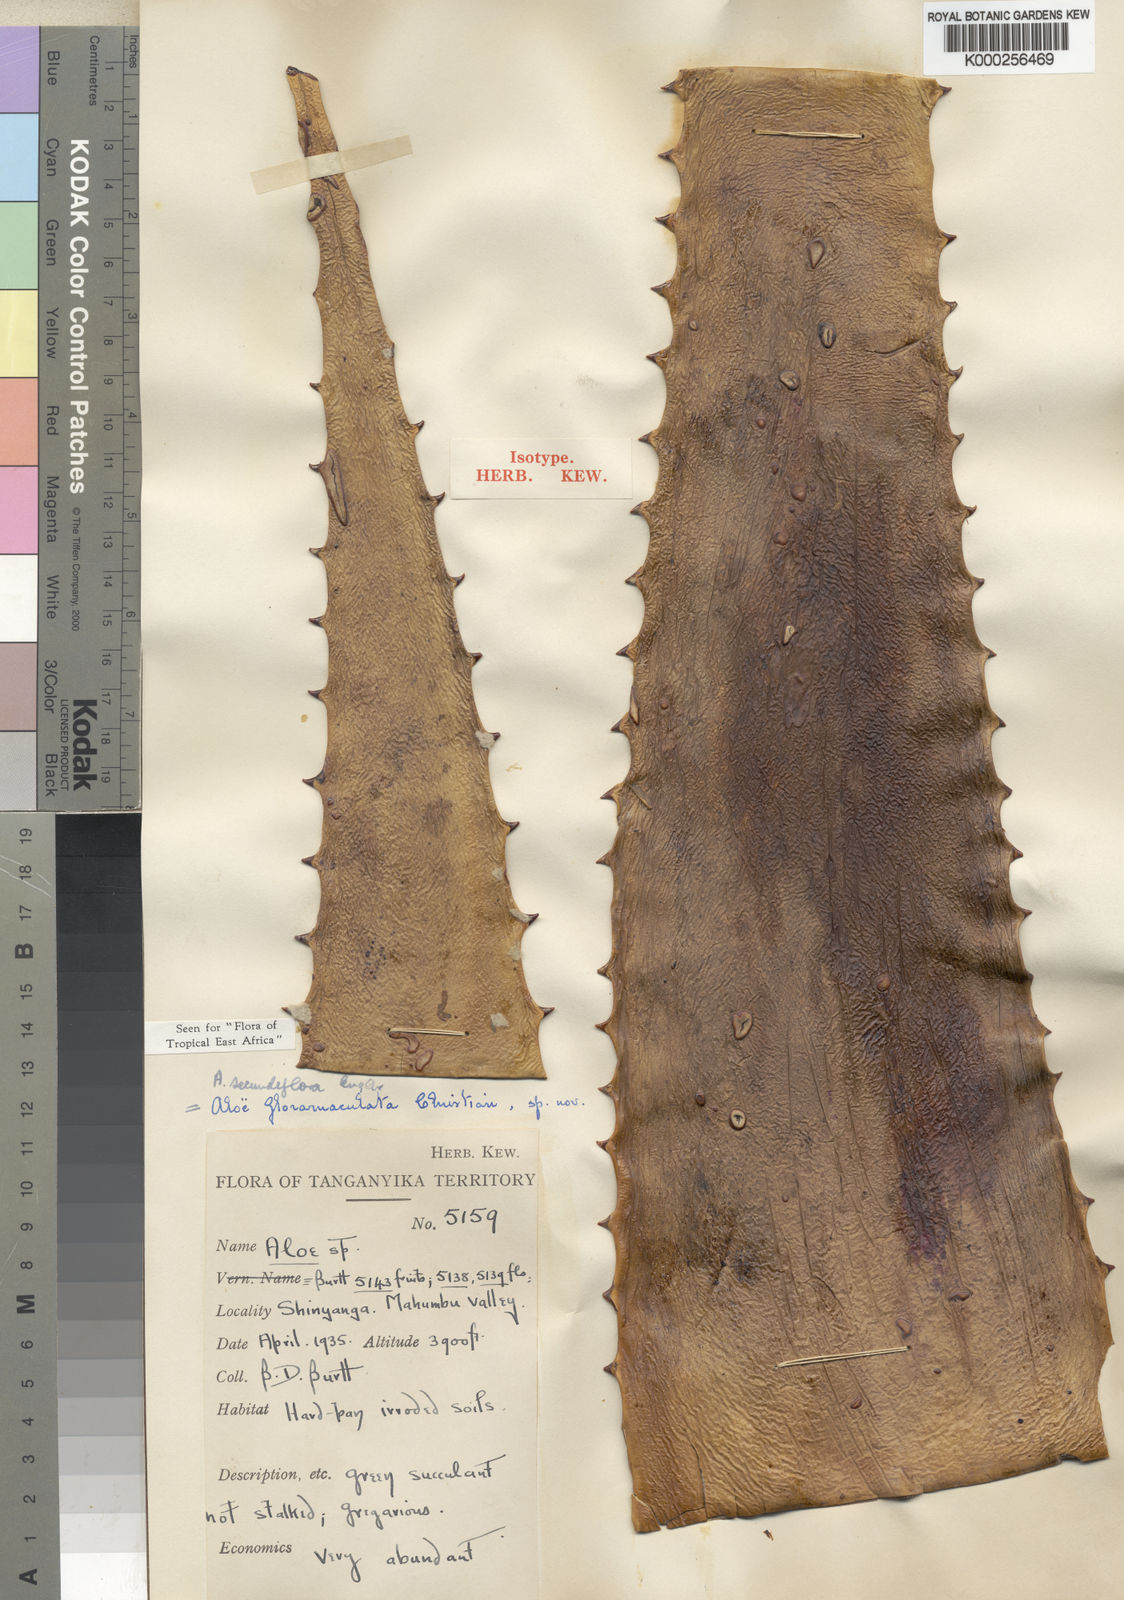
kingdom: Plantae
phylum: Tracheophyta
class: Liliopsida
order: Asparagales
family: Asphodelaceae
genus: Aloe
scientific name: Aloe secundiflora
